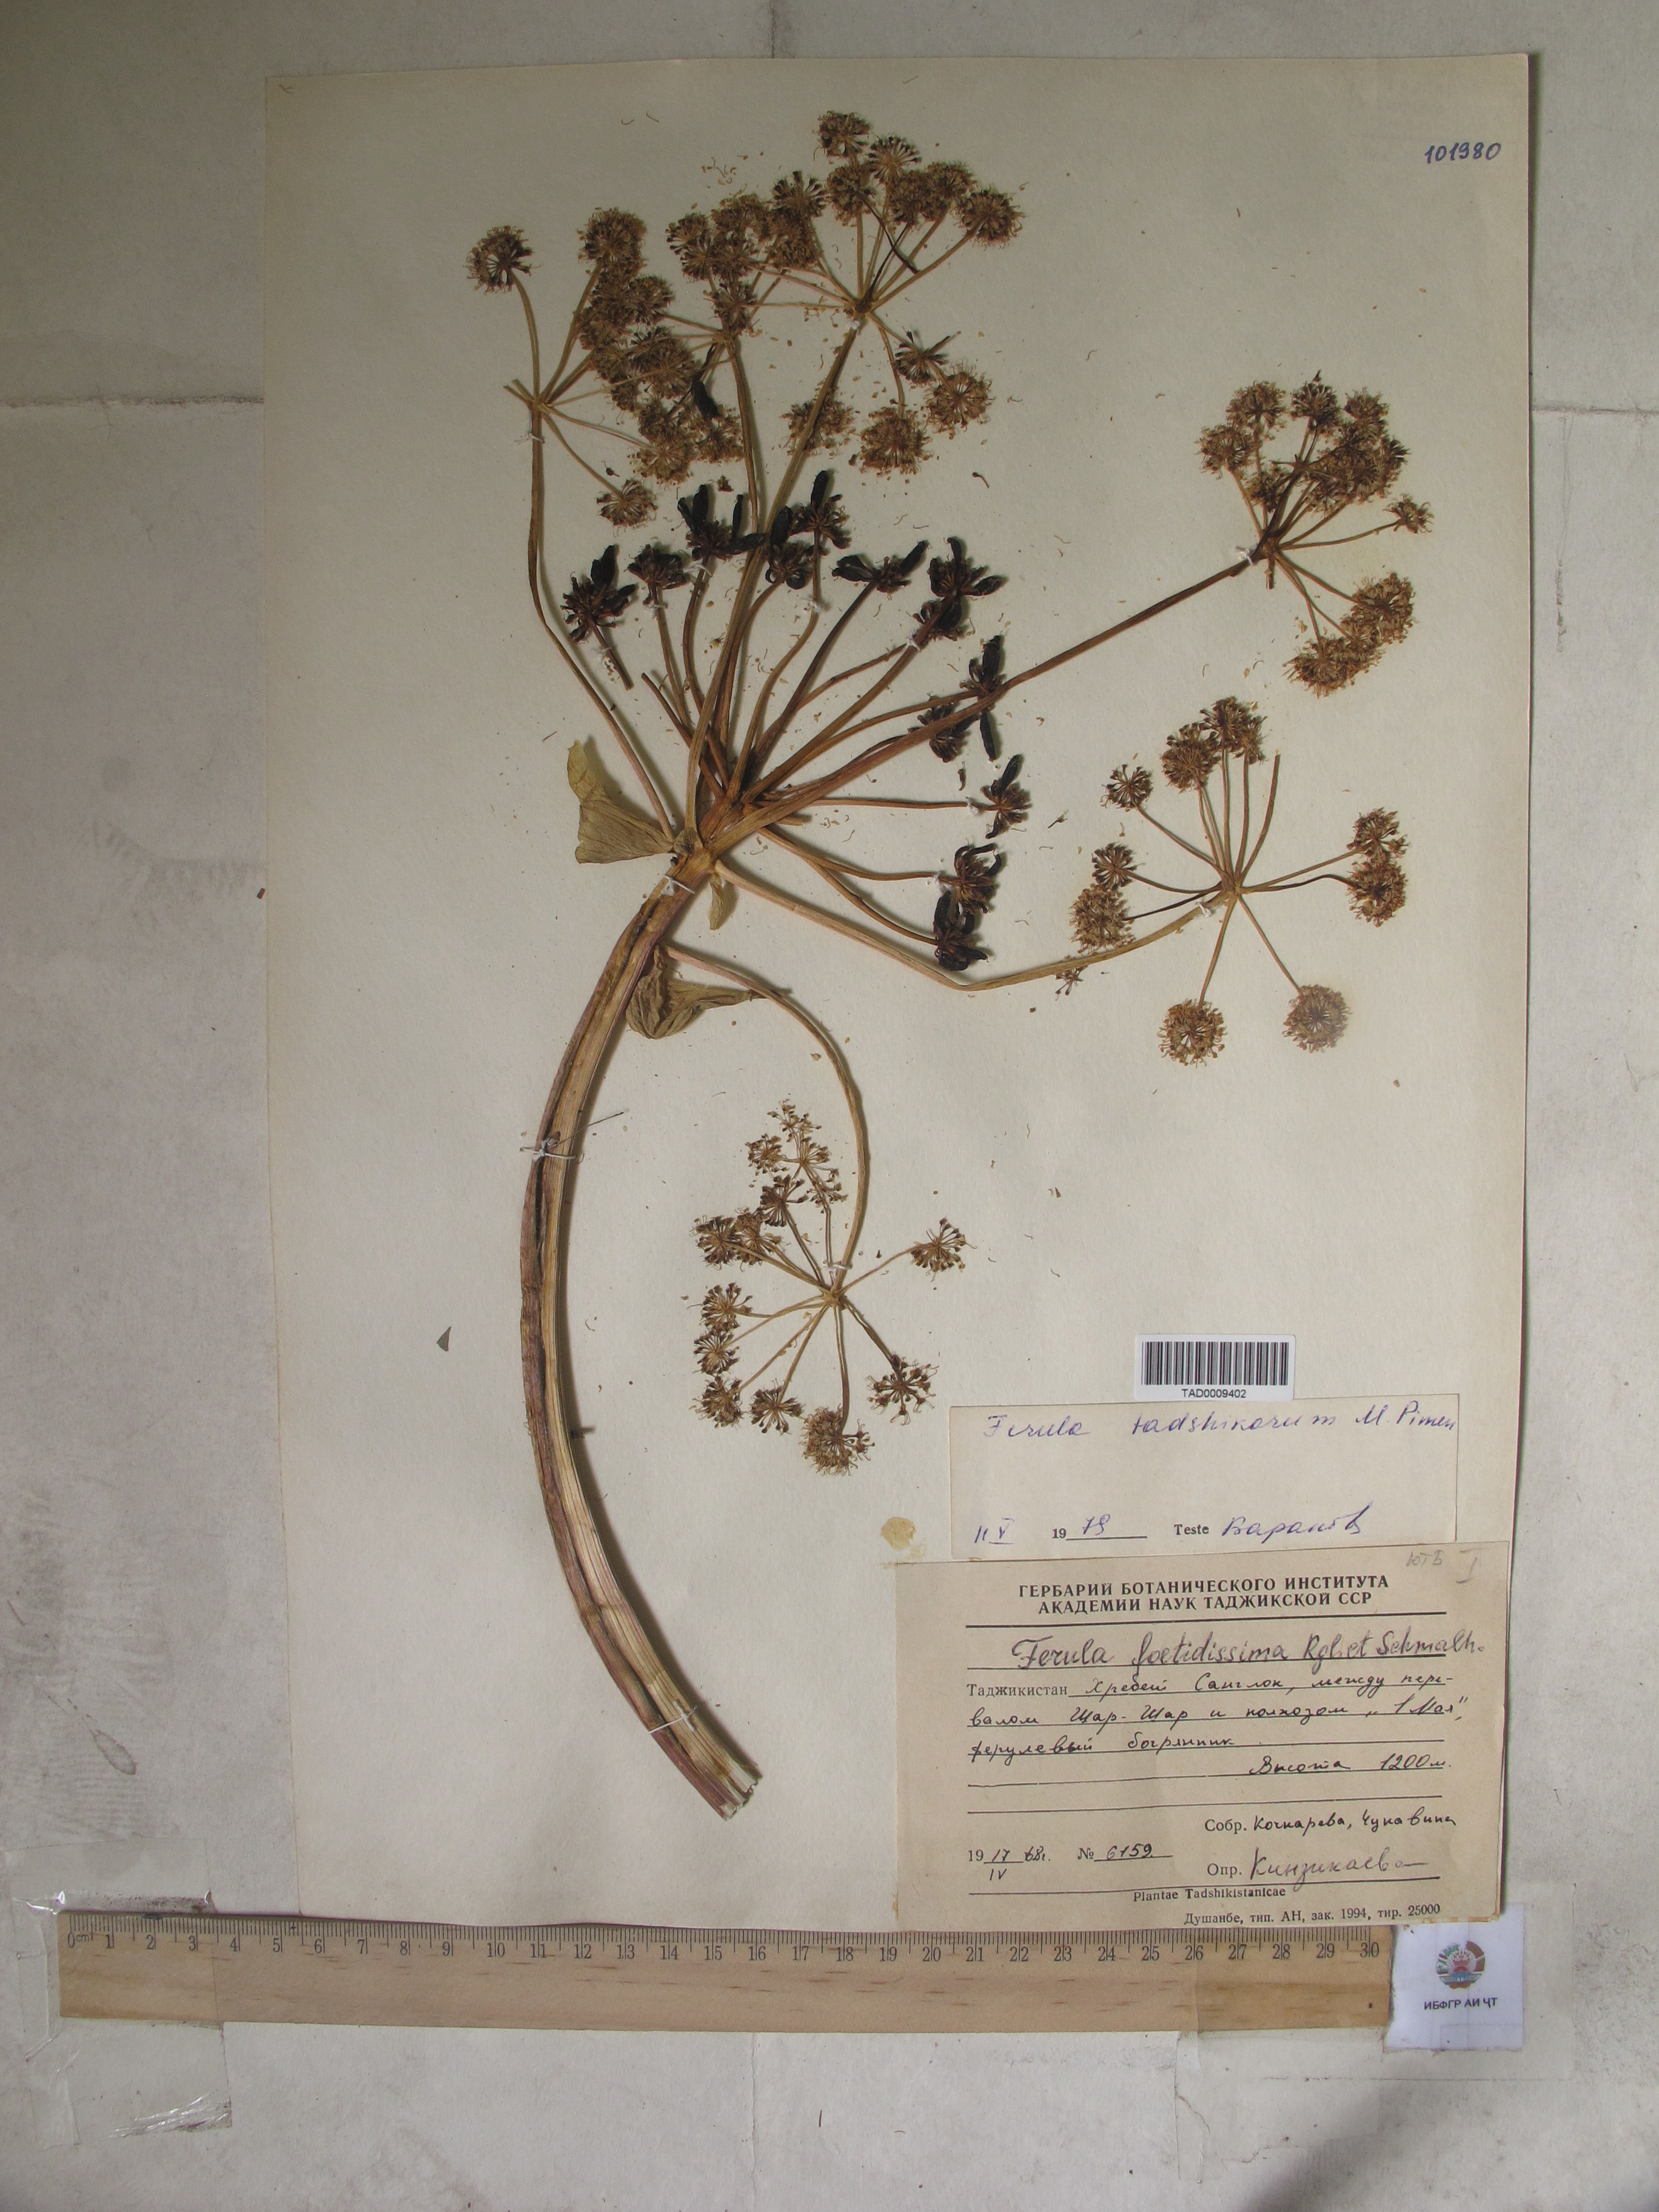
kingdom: Plantae
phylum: Tracheophyta
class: Magnoliopsida
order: Apiales
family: Apiaceae
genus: Ferula
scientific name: Ferula foetidissima
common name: Raba
